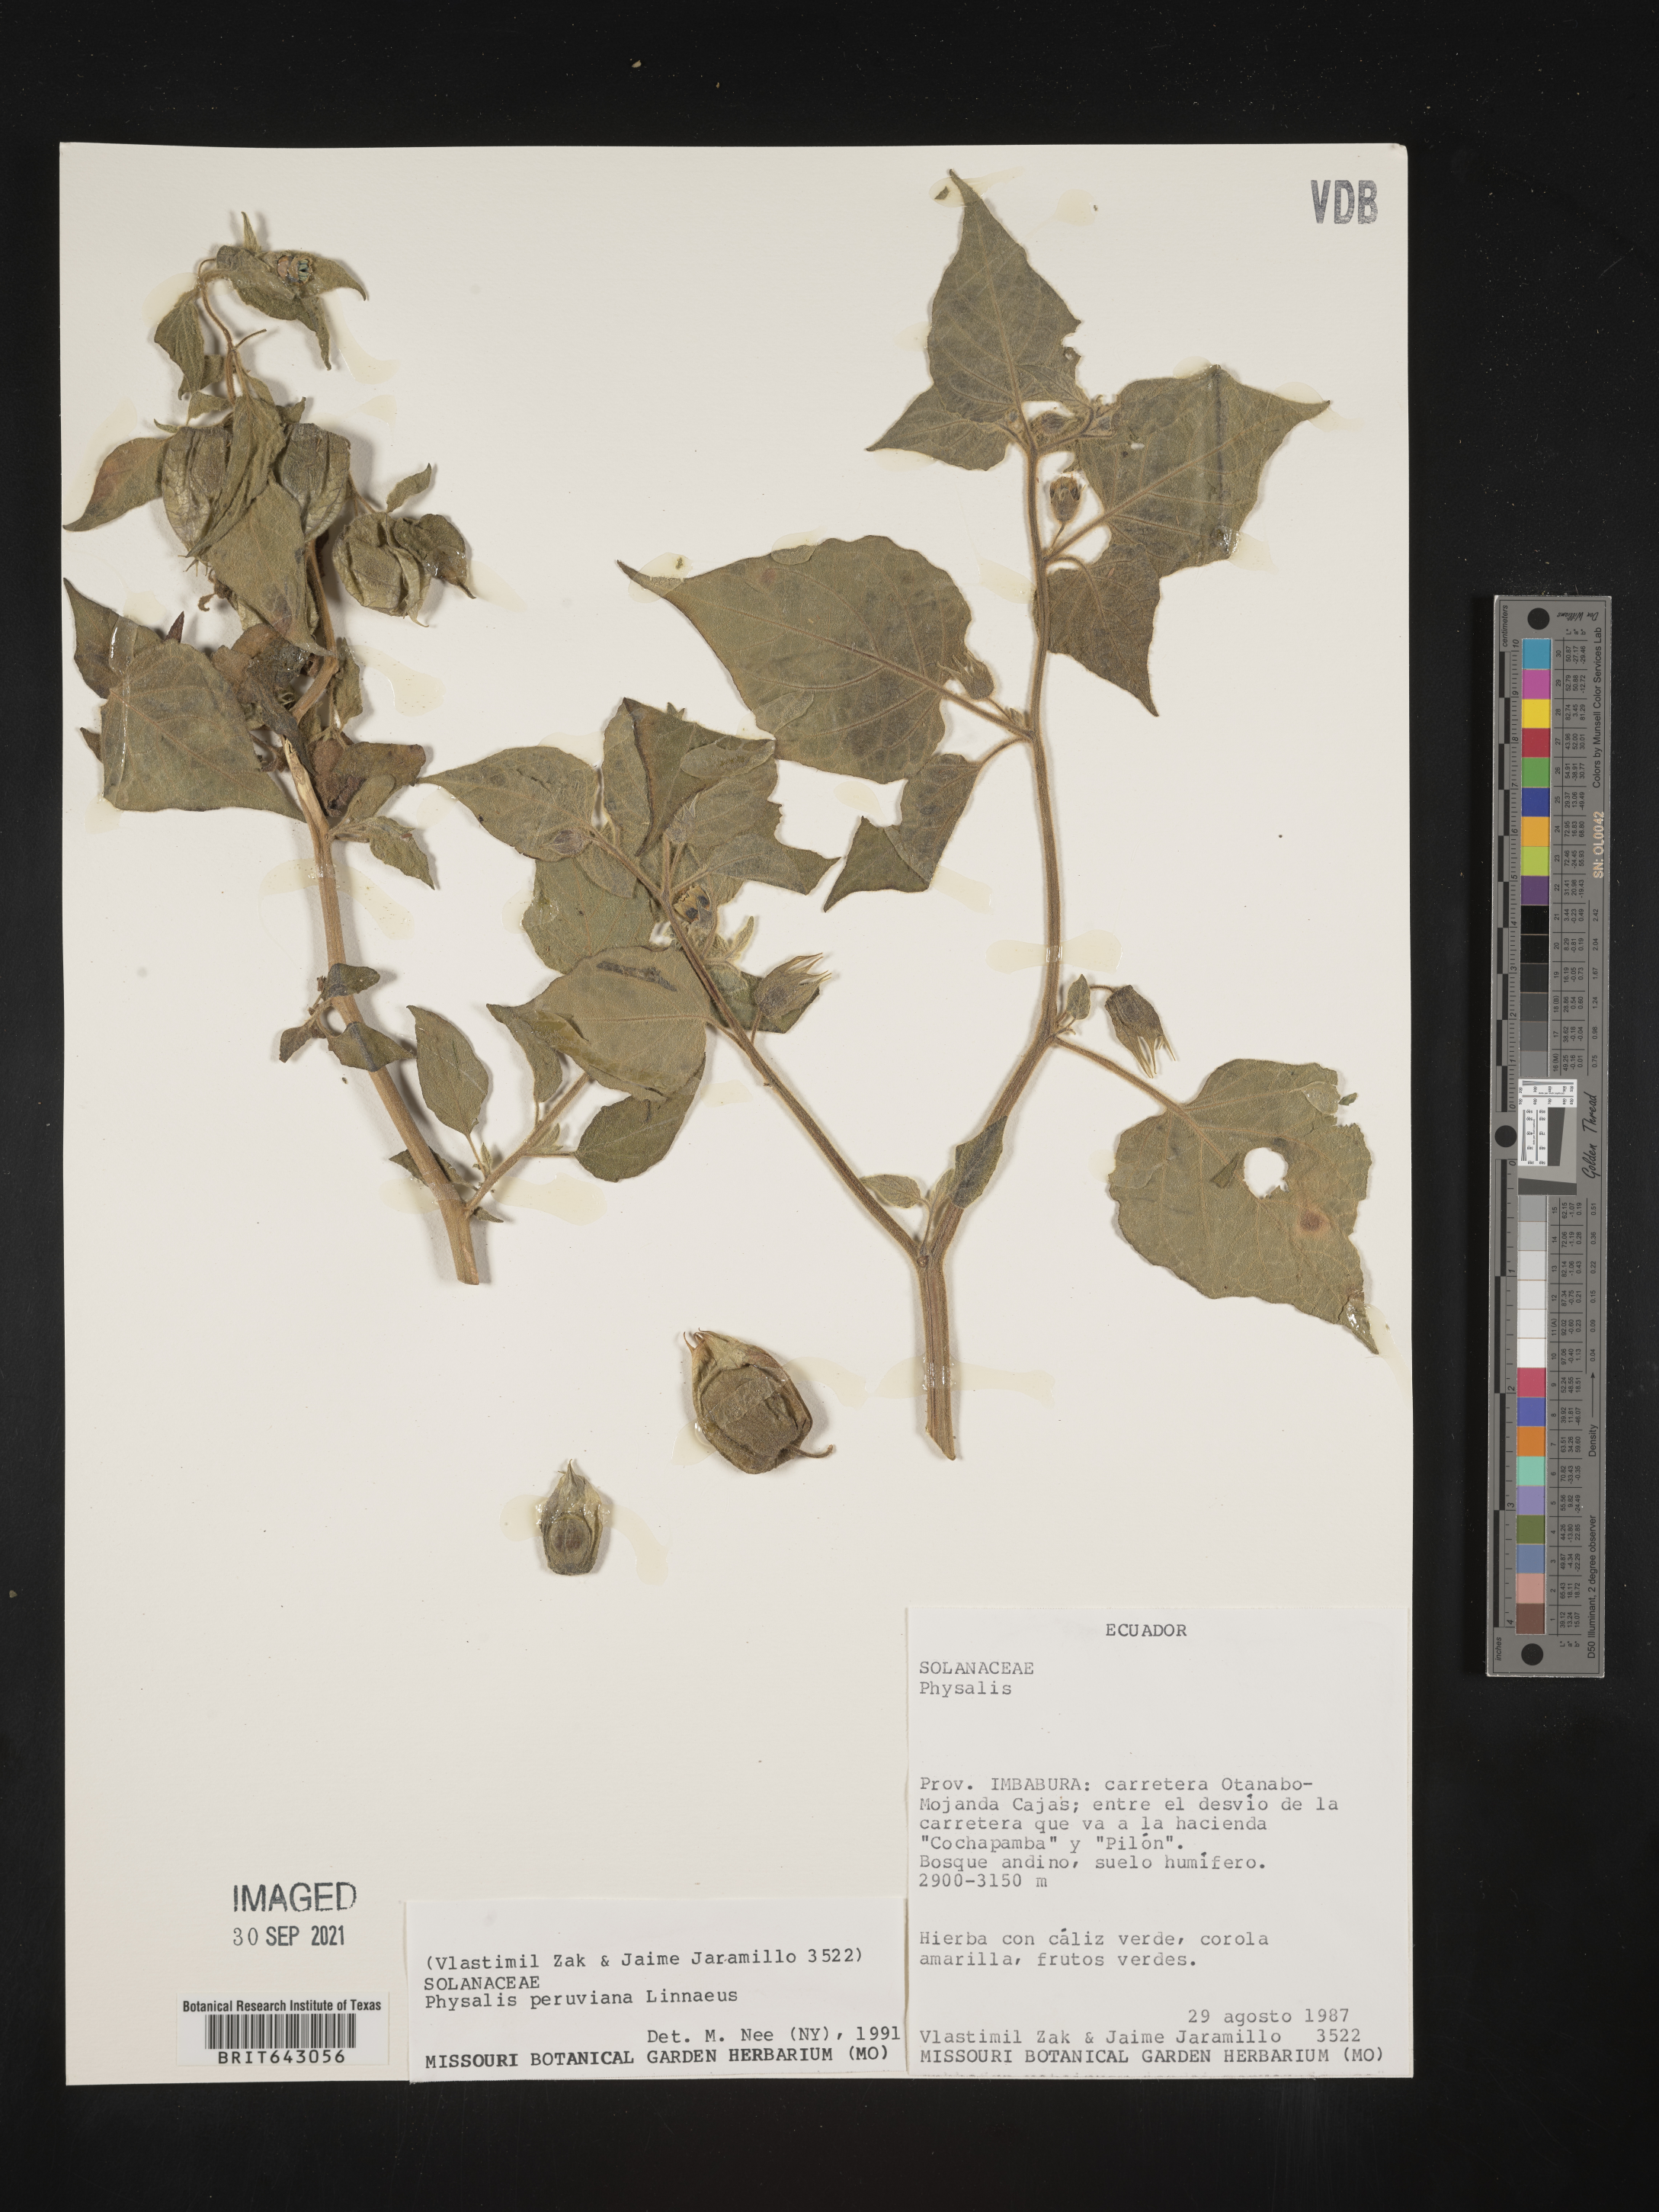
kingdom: Plantae
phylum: Tracheophyta
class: Magnoliopsida
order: Solanales
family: Solanaceae
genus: Physalis
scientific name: Physalis
